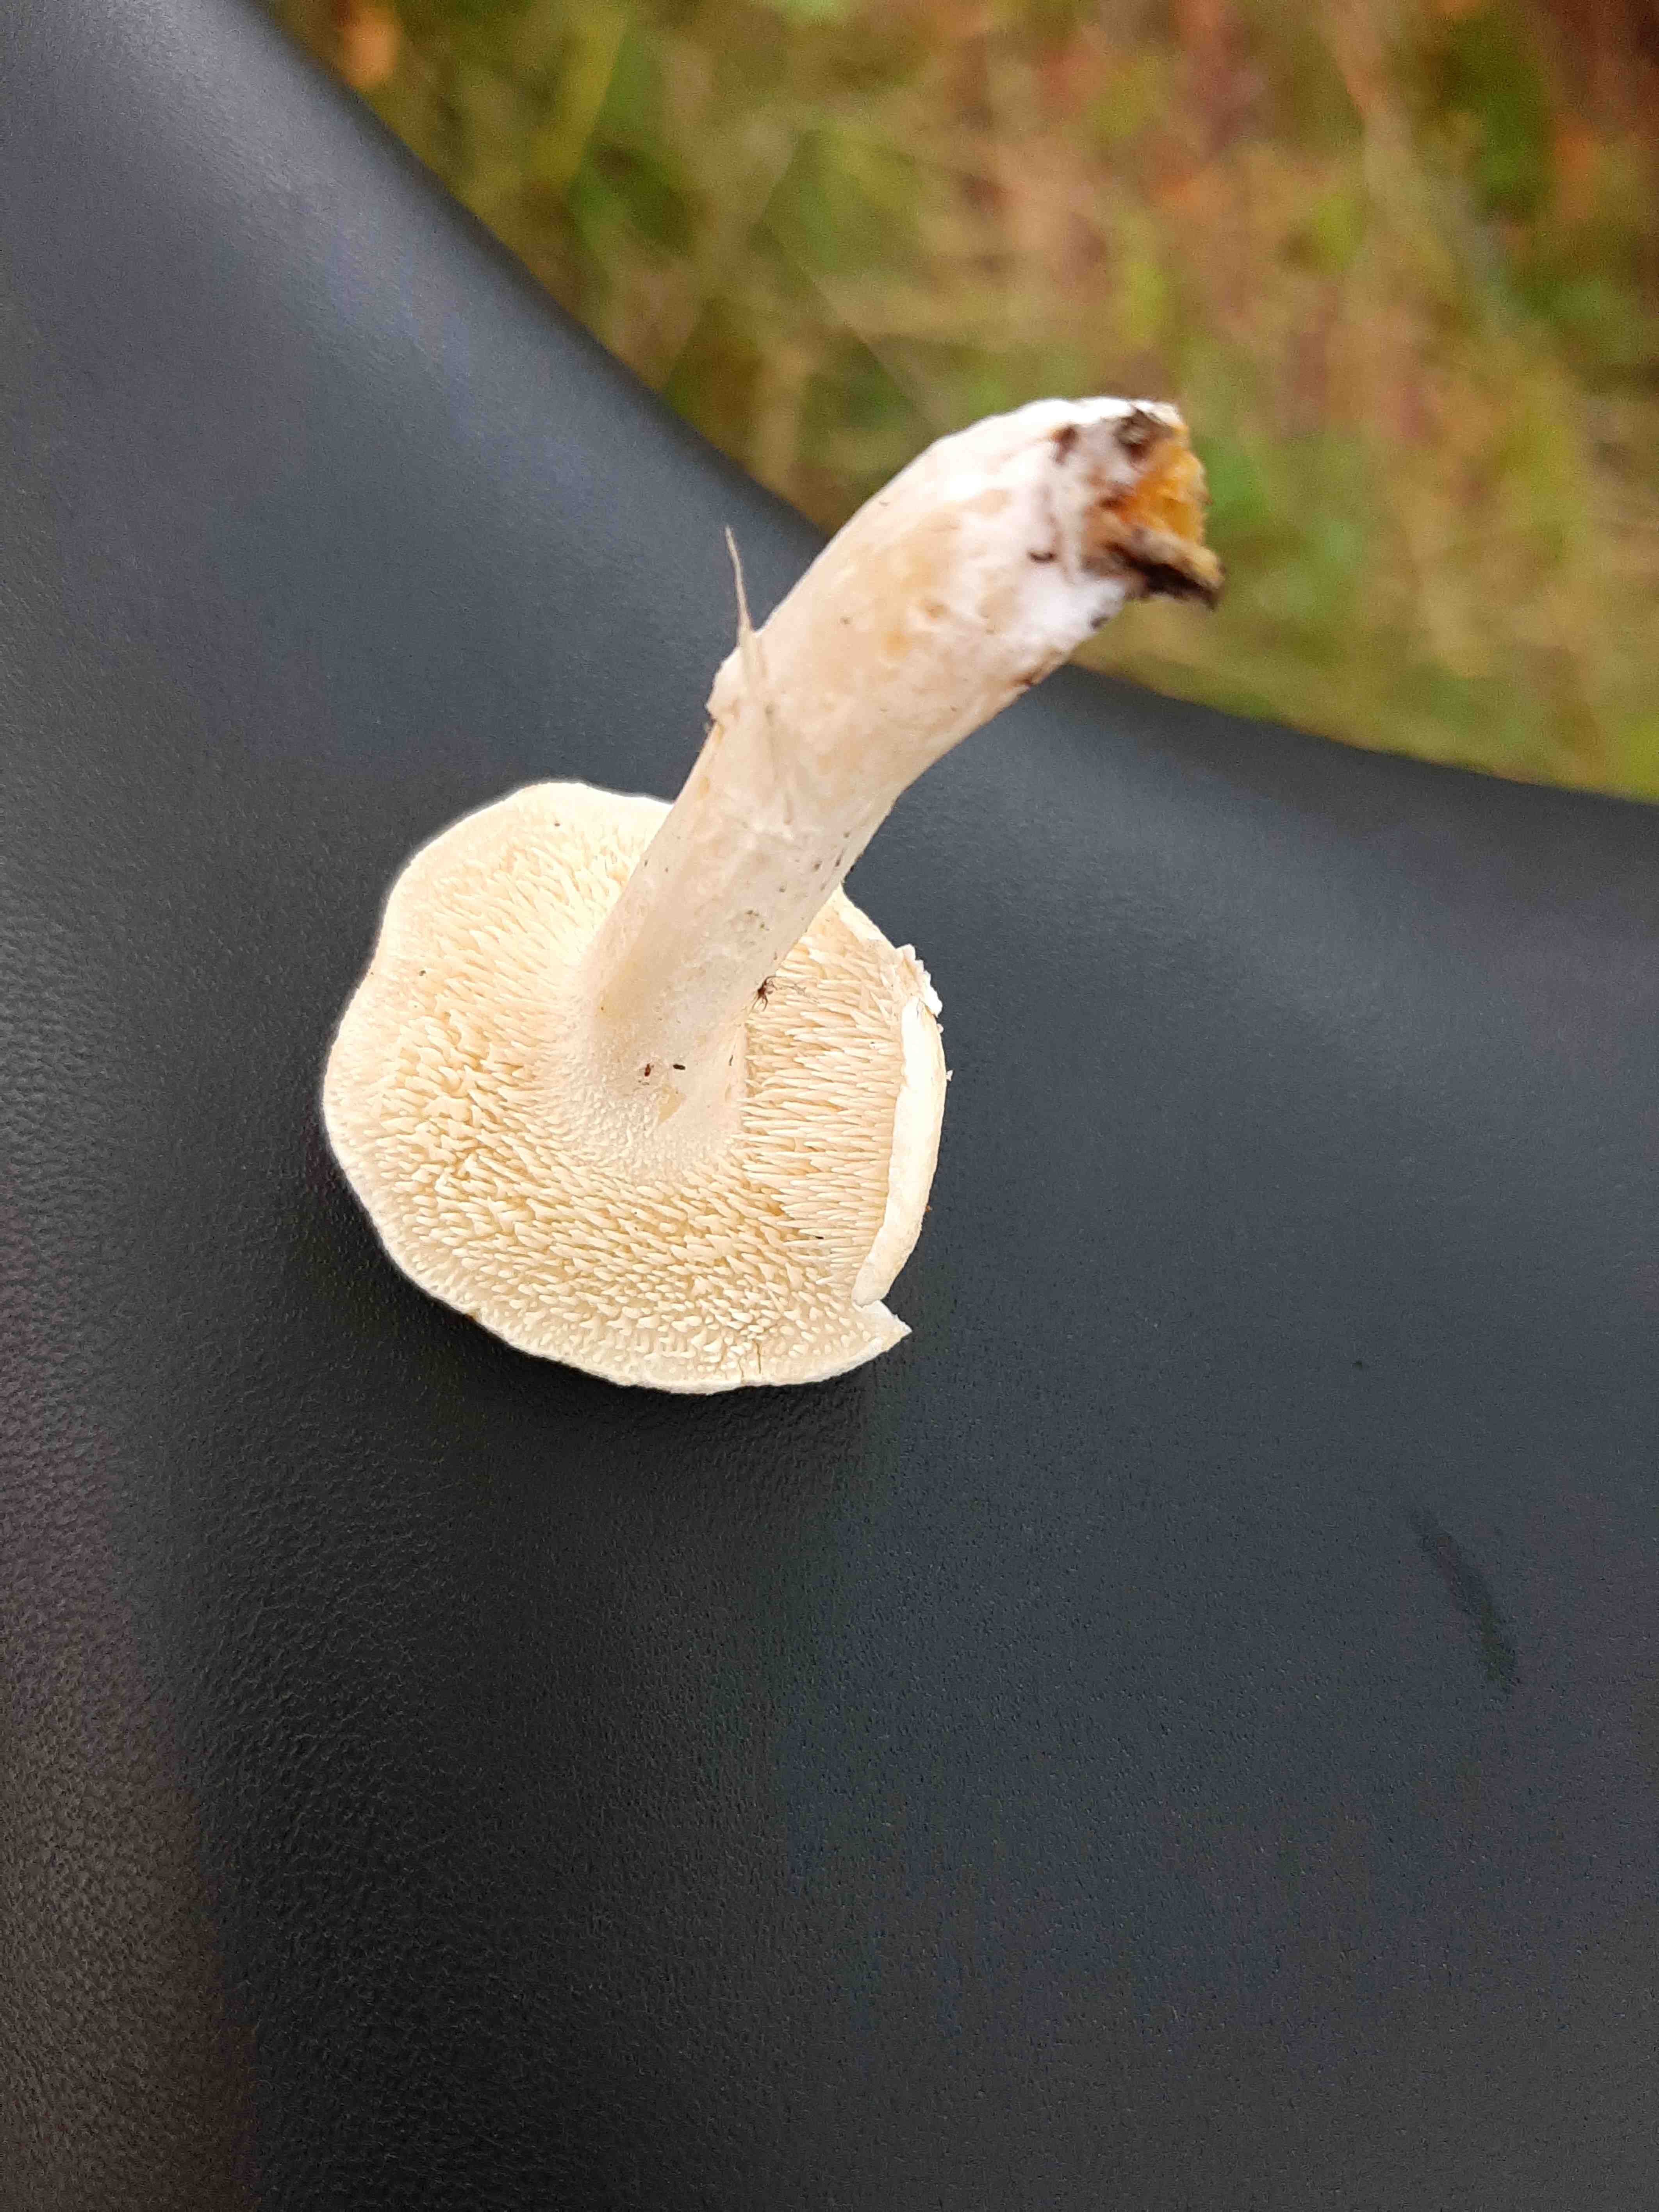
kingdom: Fungi
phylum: Basidiomycota
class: Agaricomycetes
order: Cantharellales
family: Hydnaceae
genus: Hydnum
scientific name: Hydnum
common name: pigsvamp
